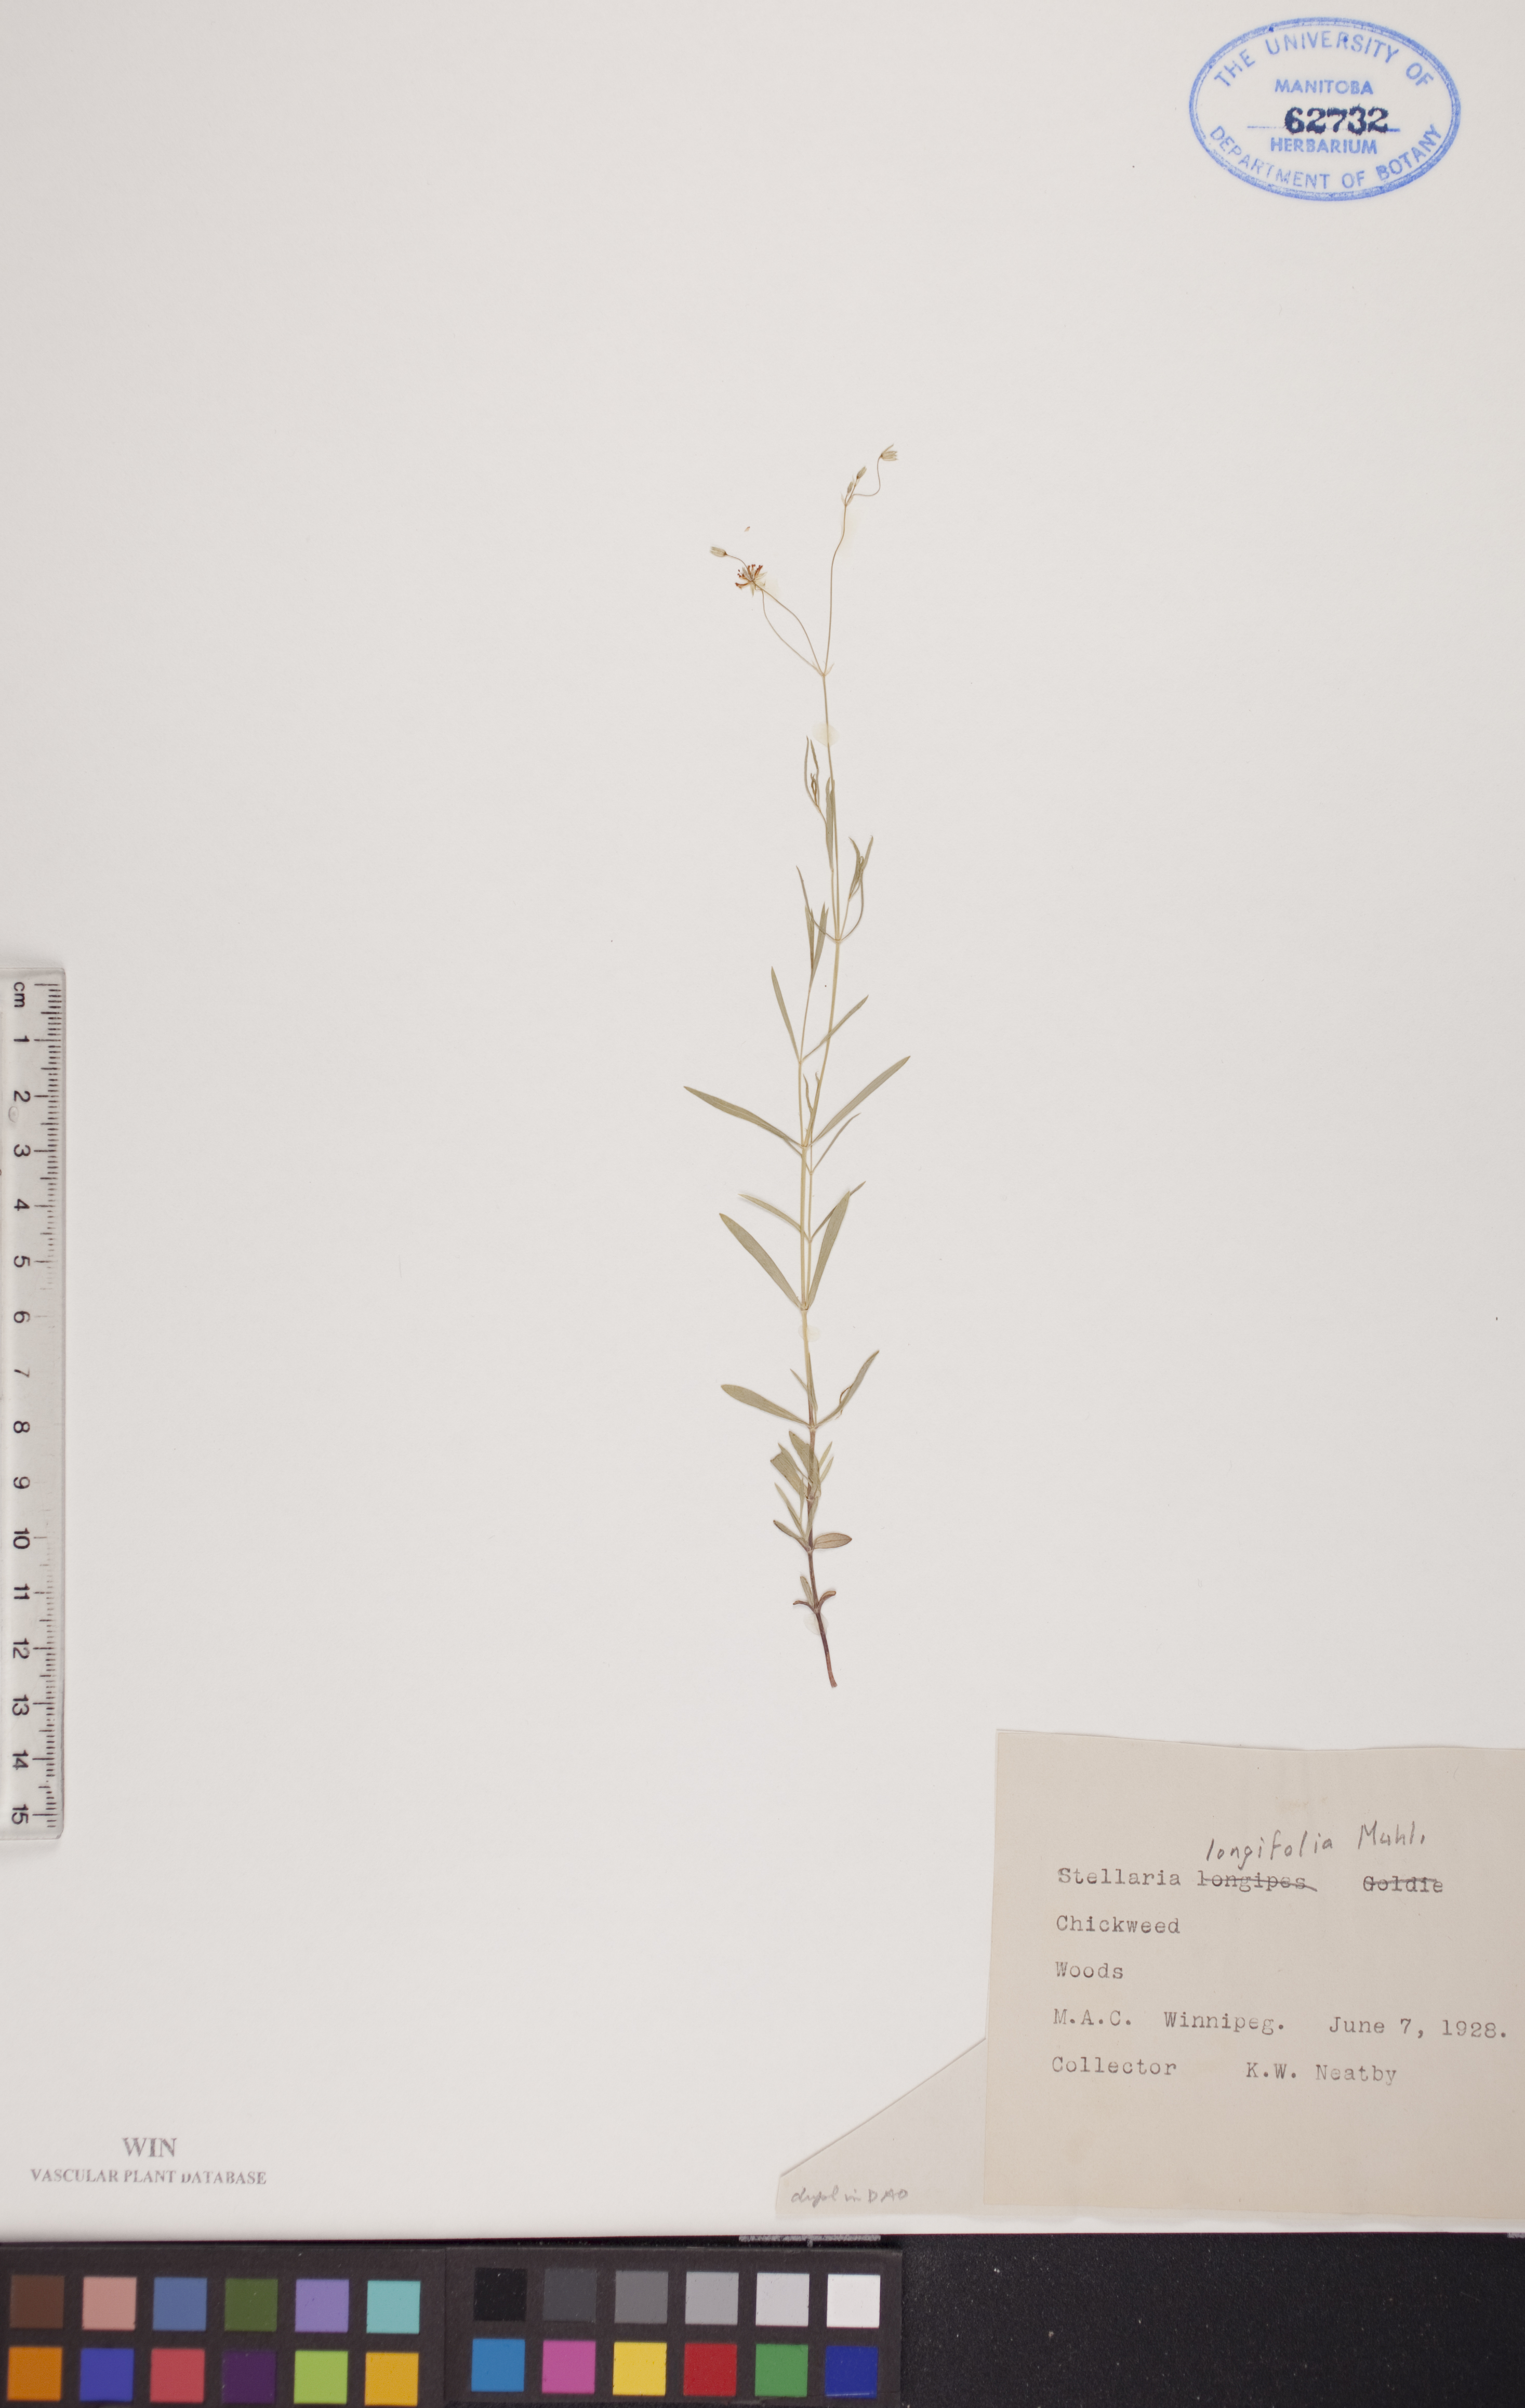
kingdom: Plantae
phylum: Tracheophyta
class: Magnoliopsida
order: Caryophyllales
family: Caryophyllaceae
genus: Stellaria
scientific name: Stellaria longifolia
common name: Long-leaved chickweed
